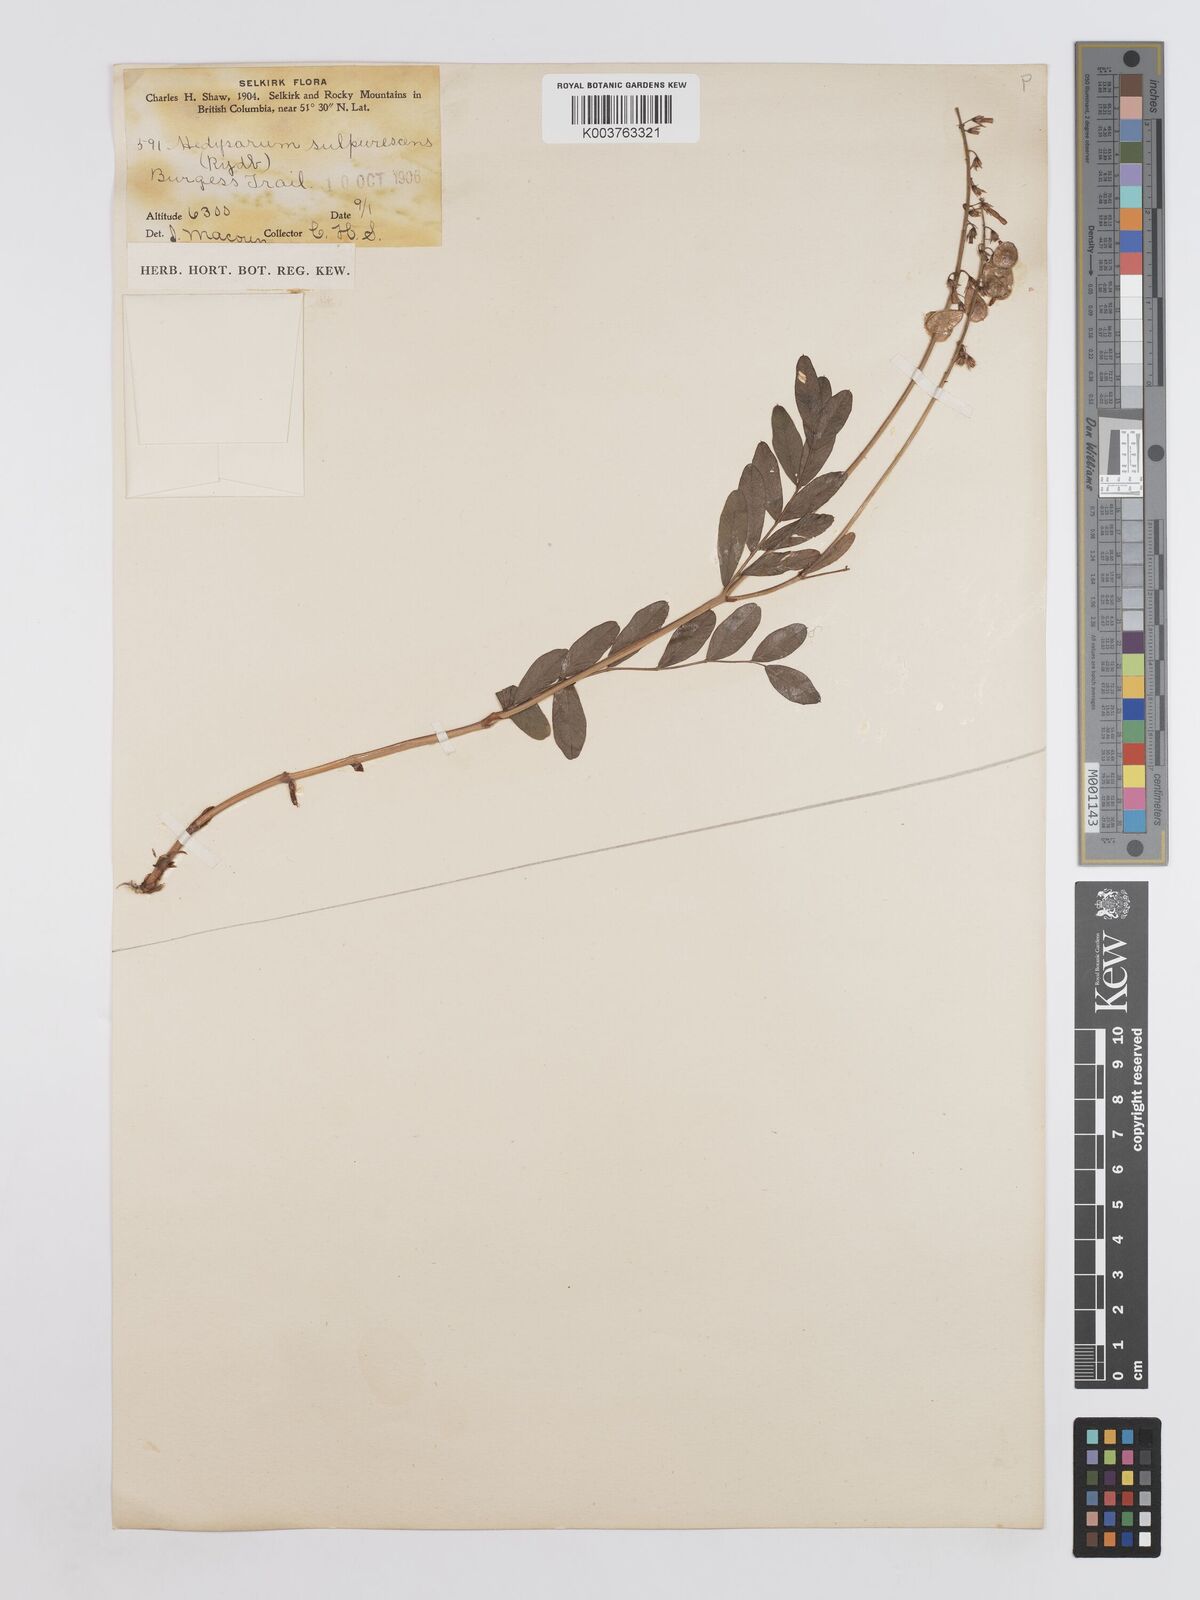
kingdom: Plantae
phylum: Tracheophyta
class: Magnoliopsida
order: Fabales
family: Fabaceae
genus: Hedysarum
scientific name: Hedysarum sulphurescens
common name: Sulphur hedysarum
